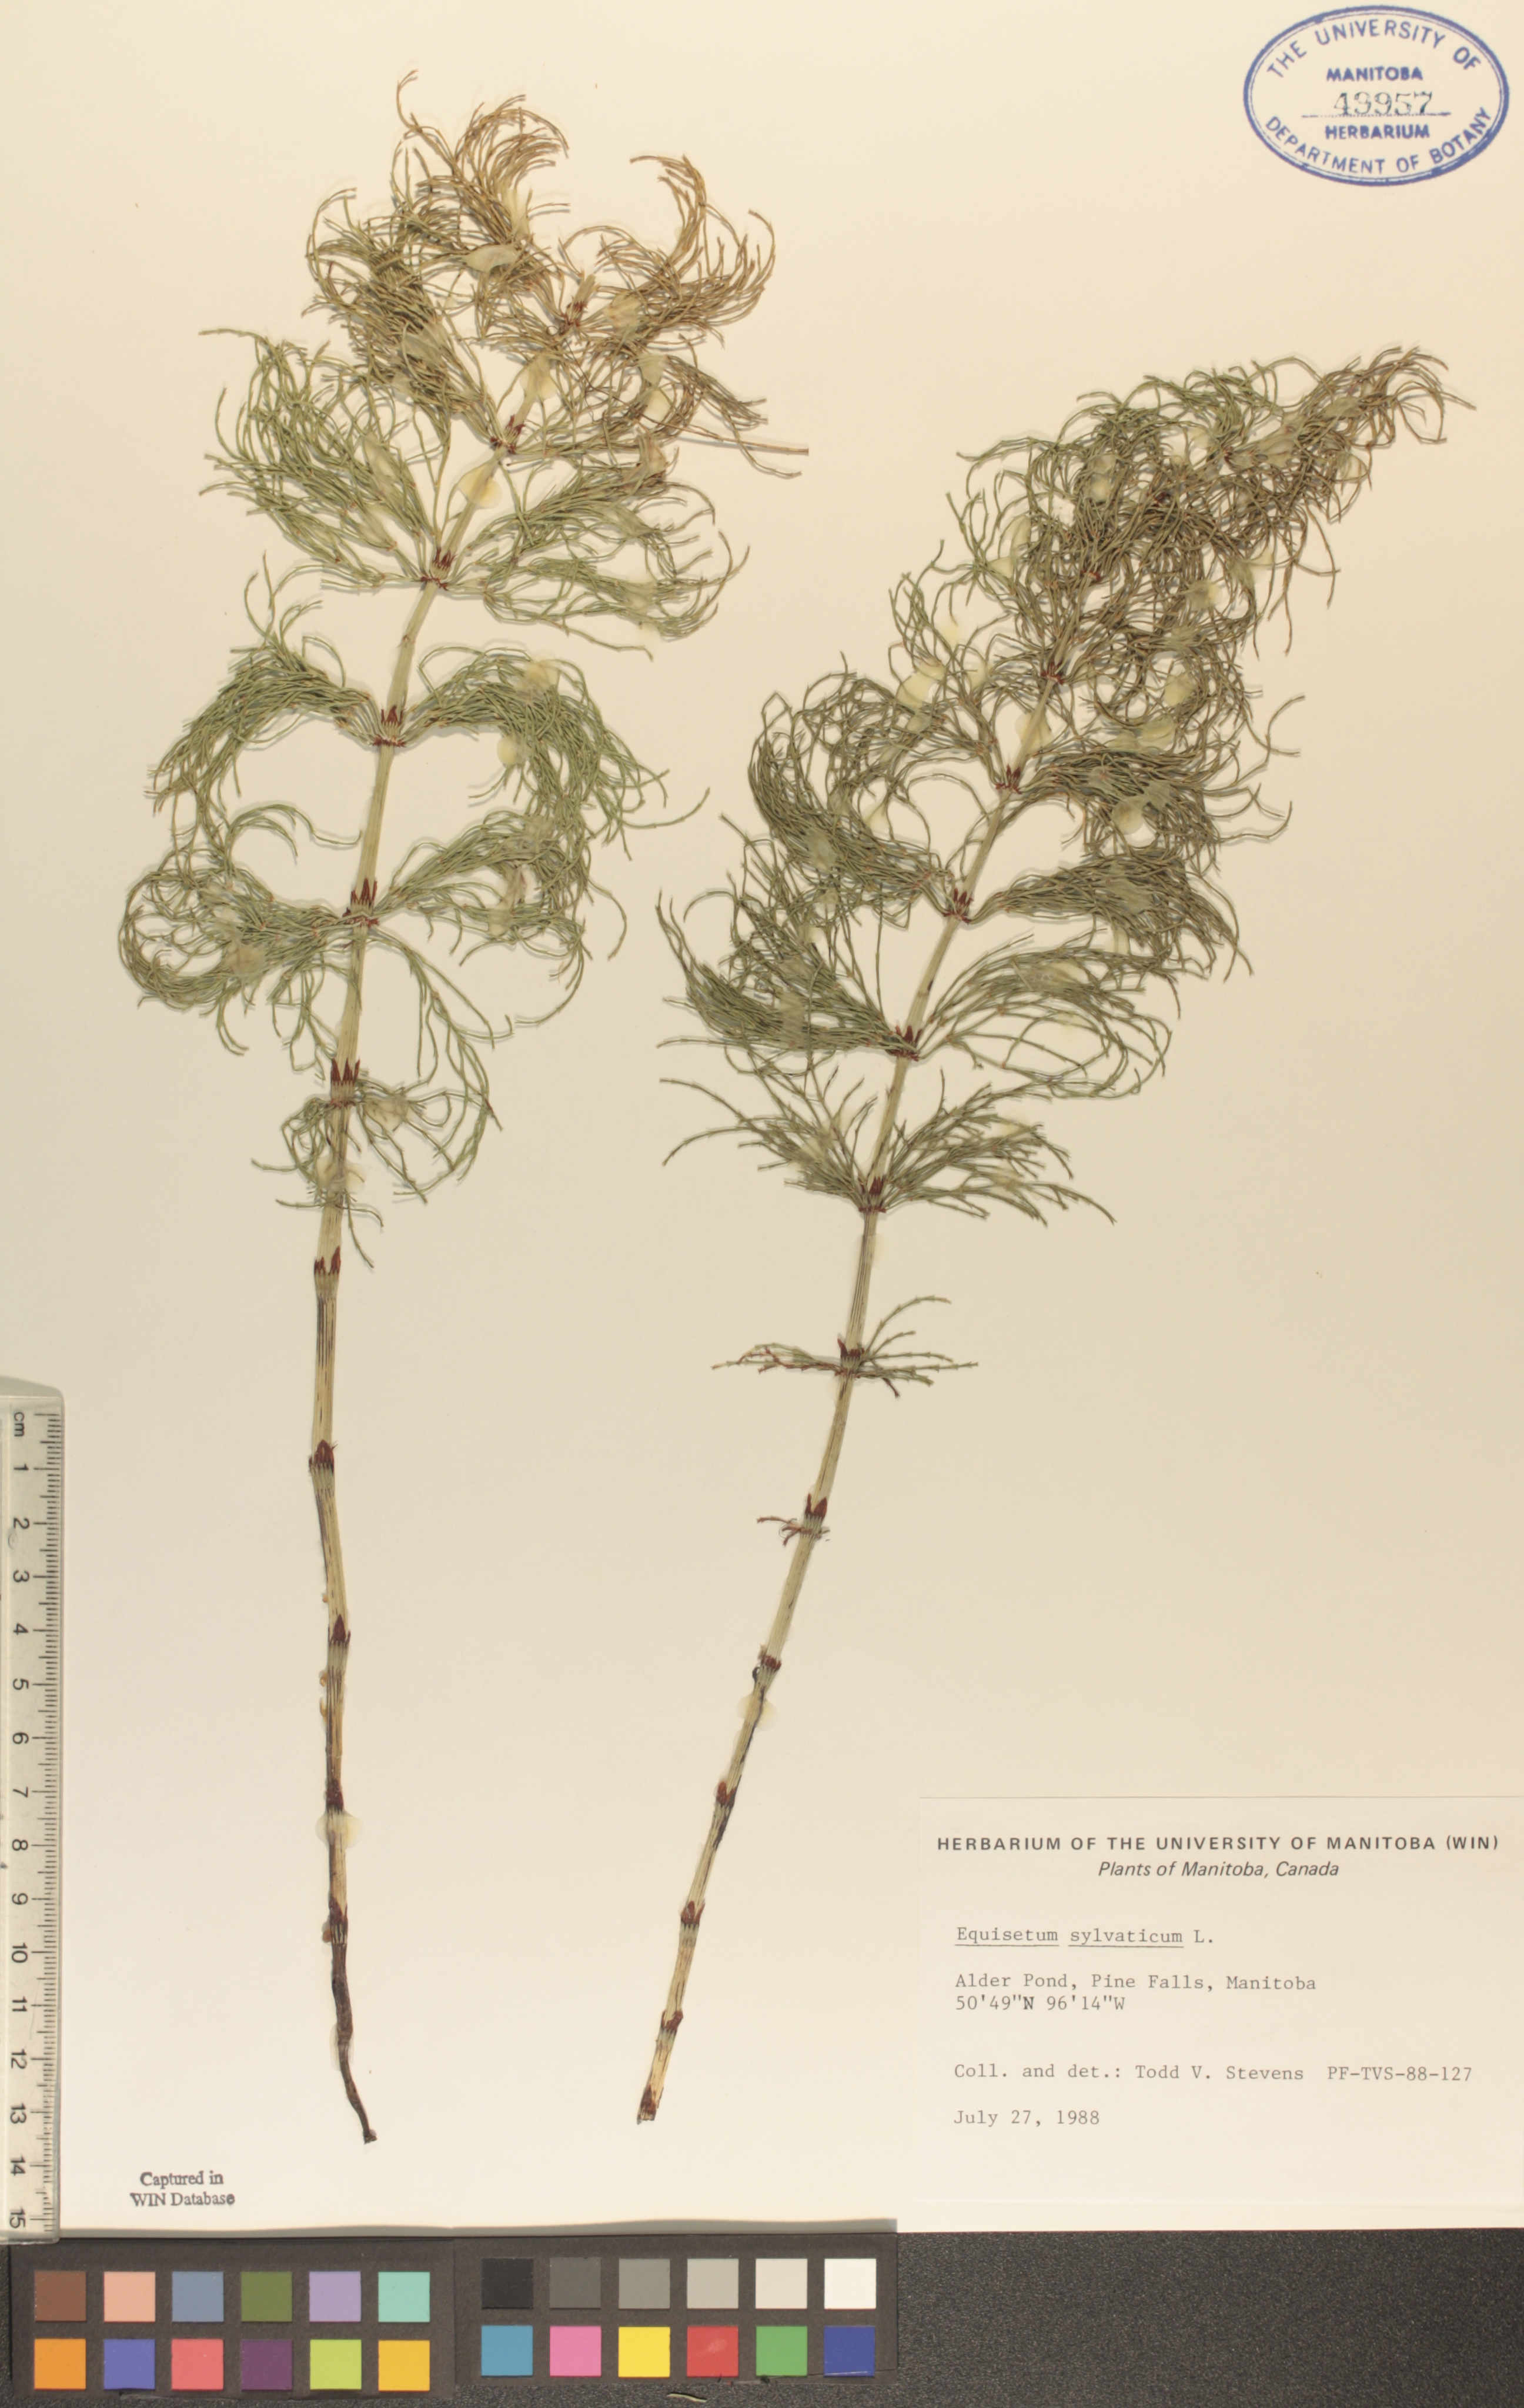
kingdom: Plantae
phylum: Tracheophyta
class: Polypodiopsida
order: Equisetales
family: Equisetaceae
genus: Equisetum
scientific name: Equisetum sylvaticum
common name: Wood horsetail
